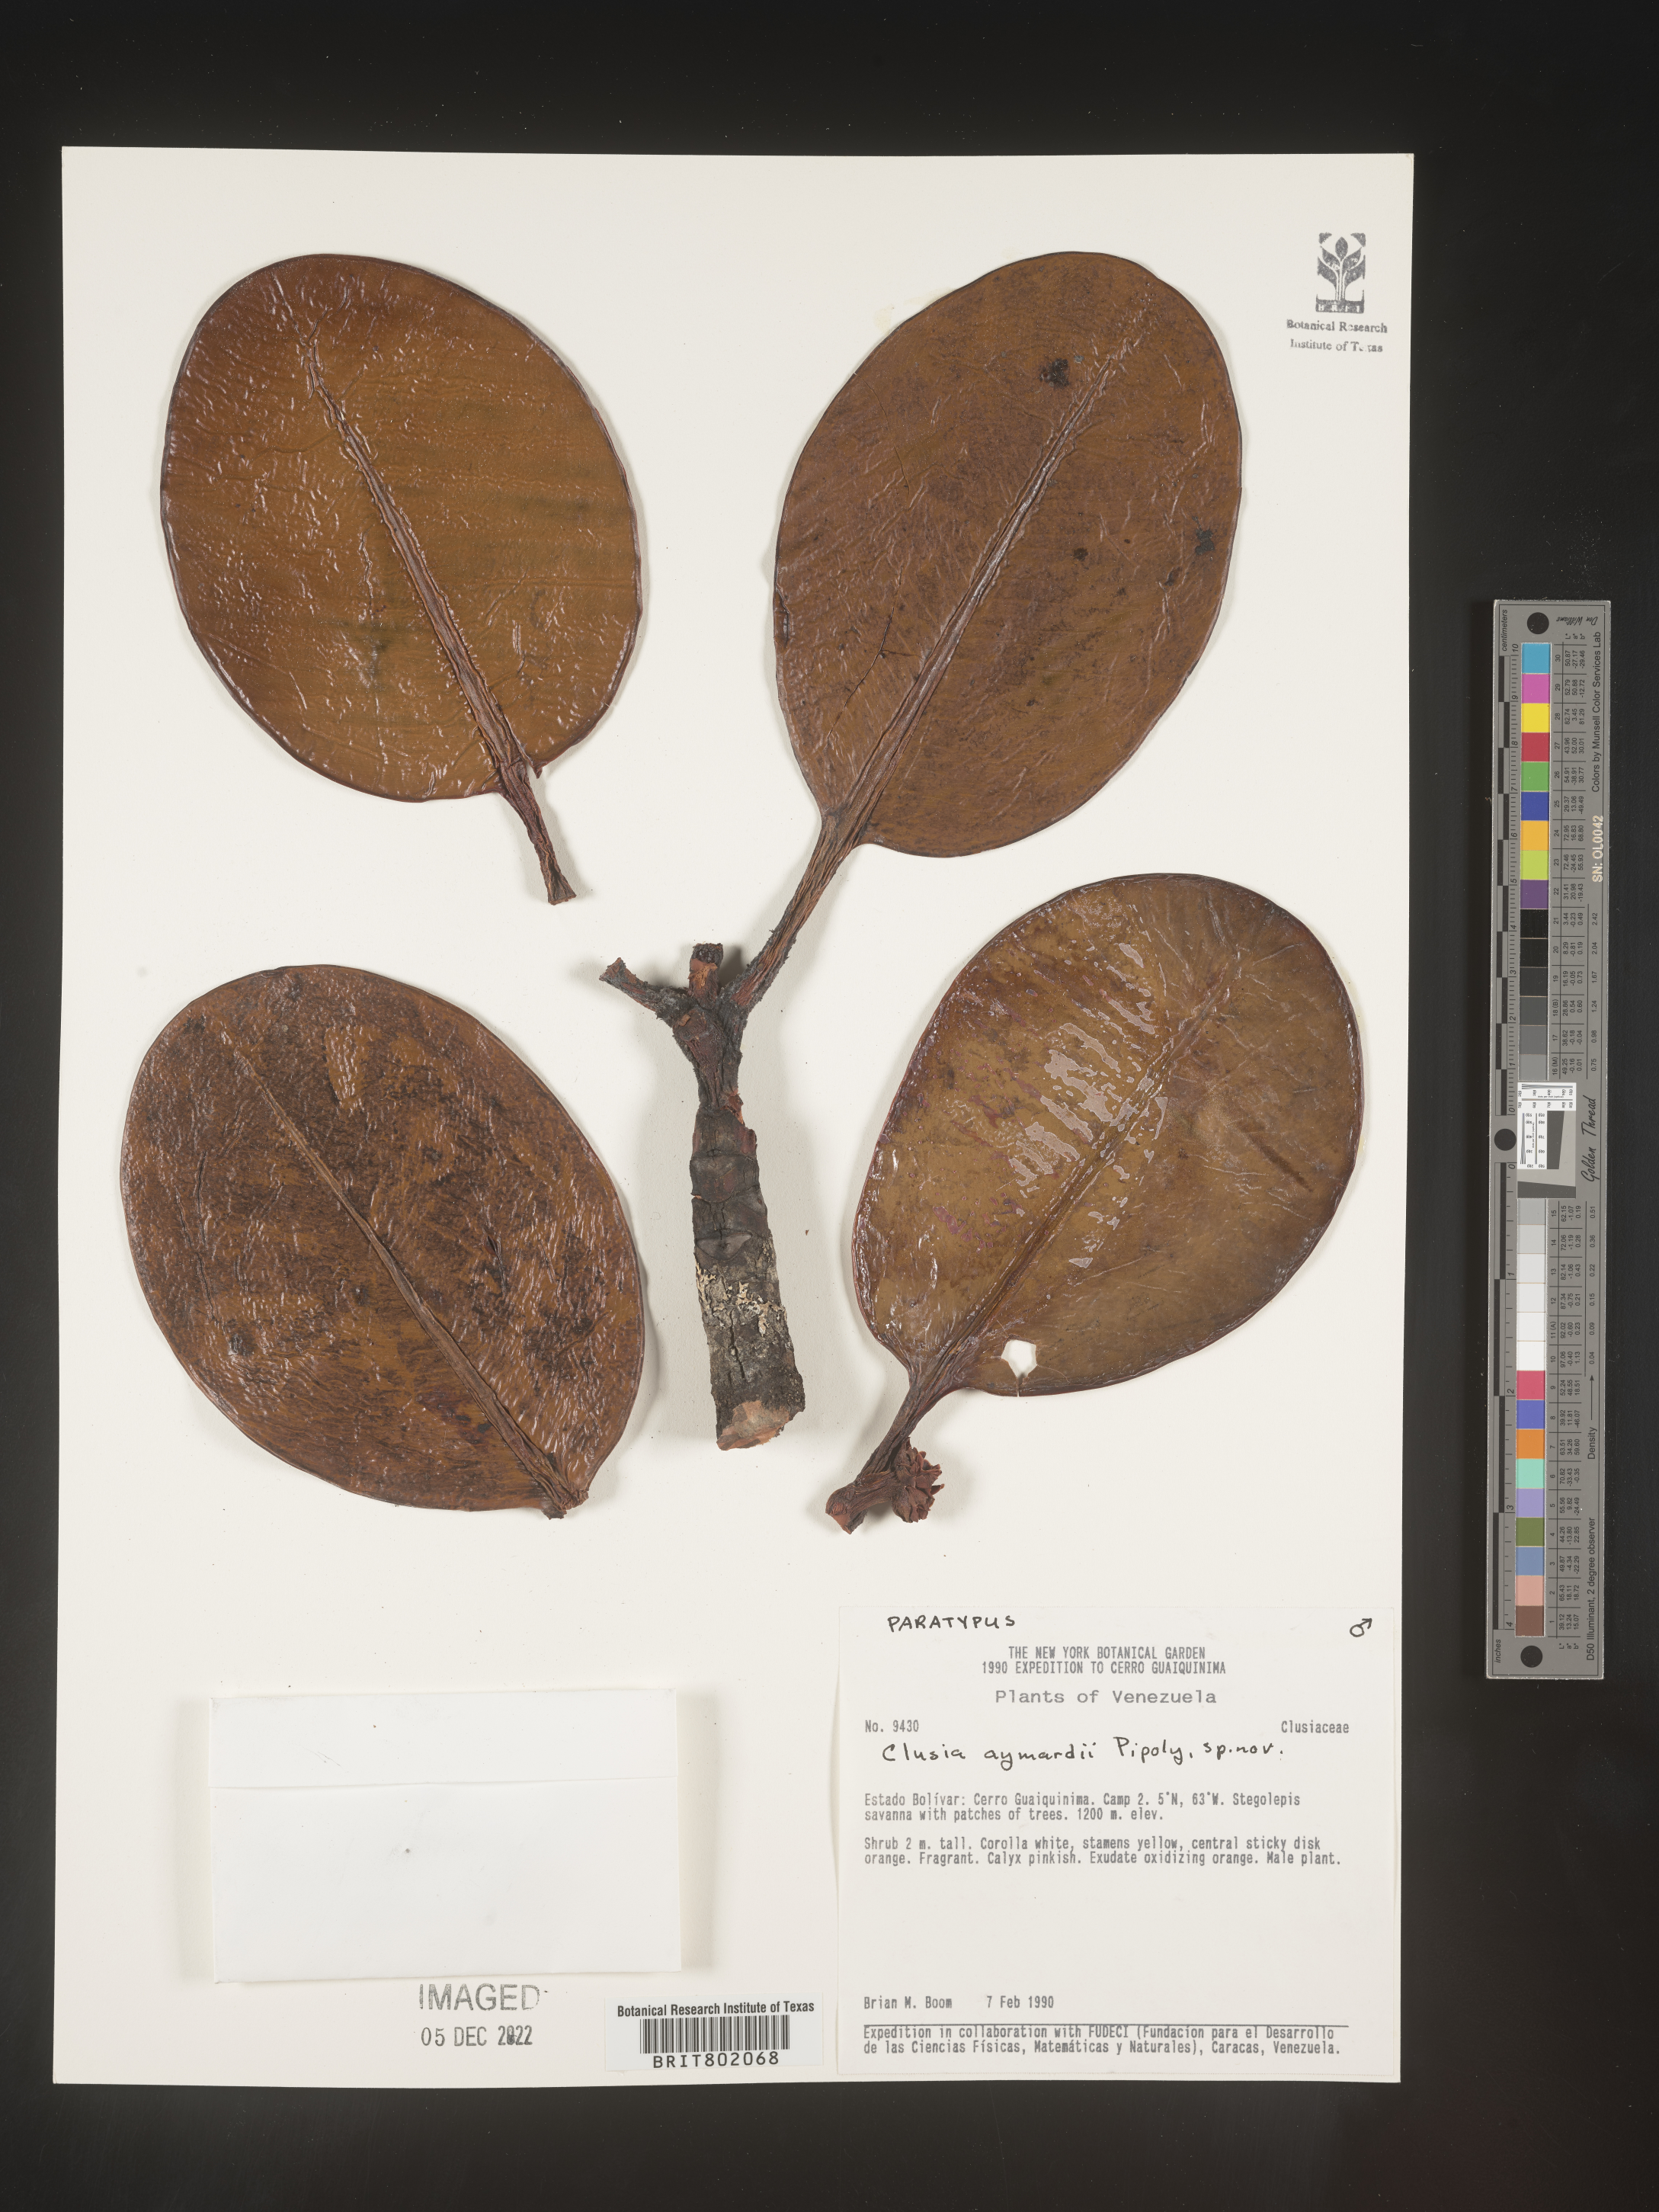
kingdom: Plantae
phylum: Tracheophyta
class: Magnoliopsida
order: Malpighiales
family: Clusiaceae
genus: Clusia
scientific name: Clusia
